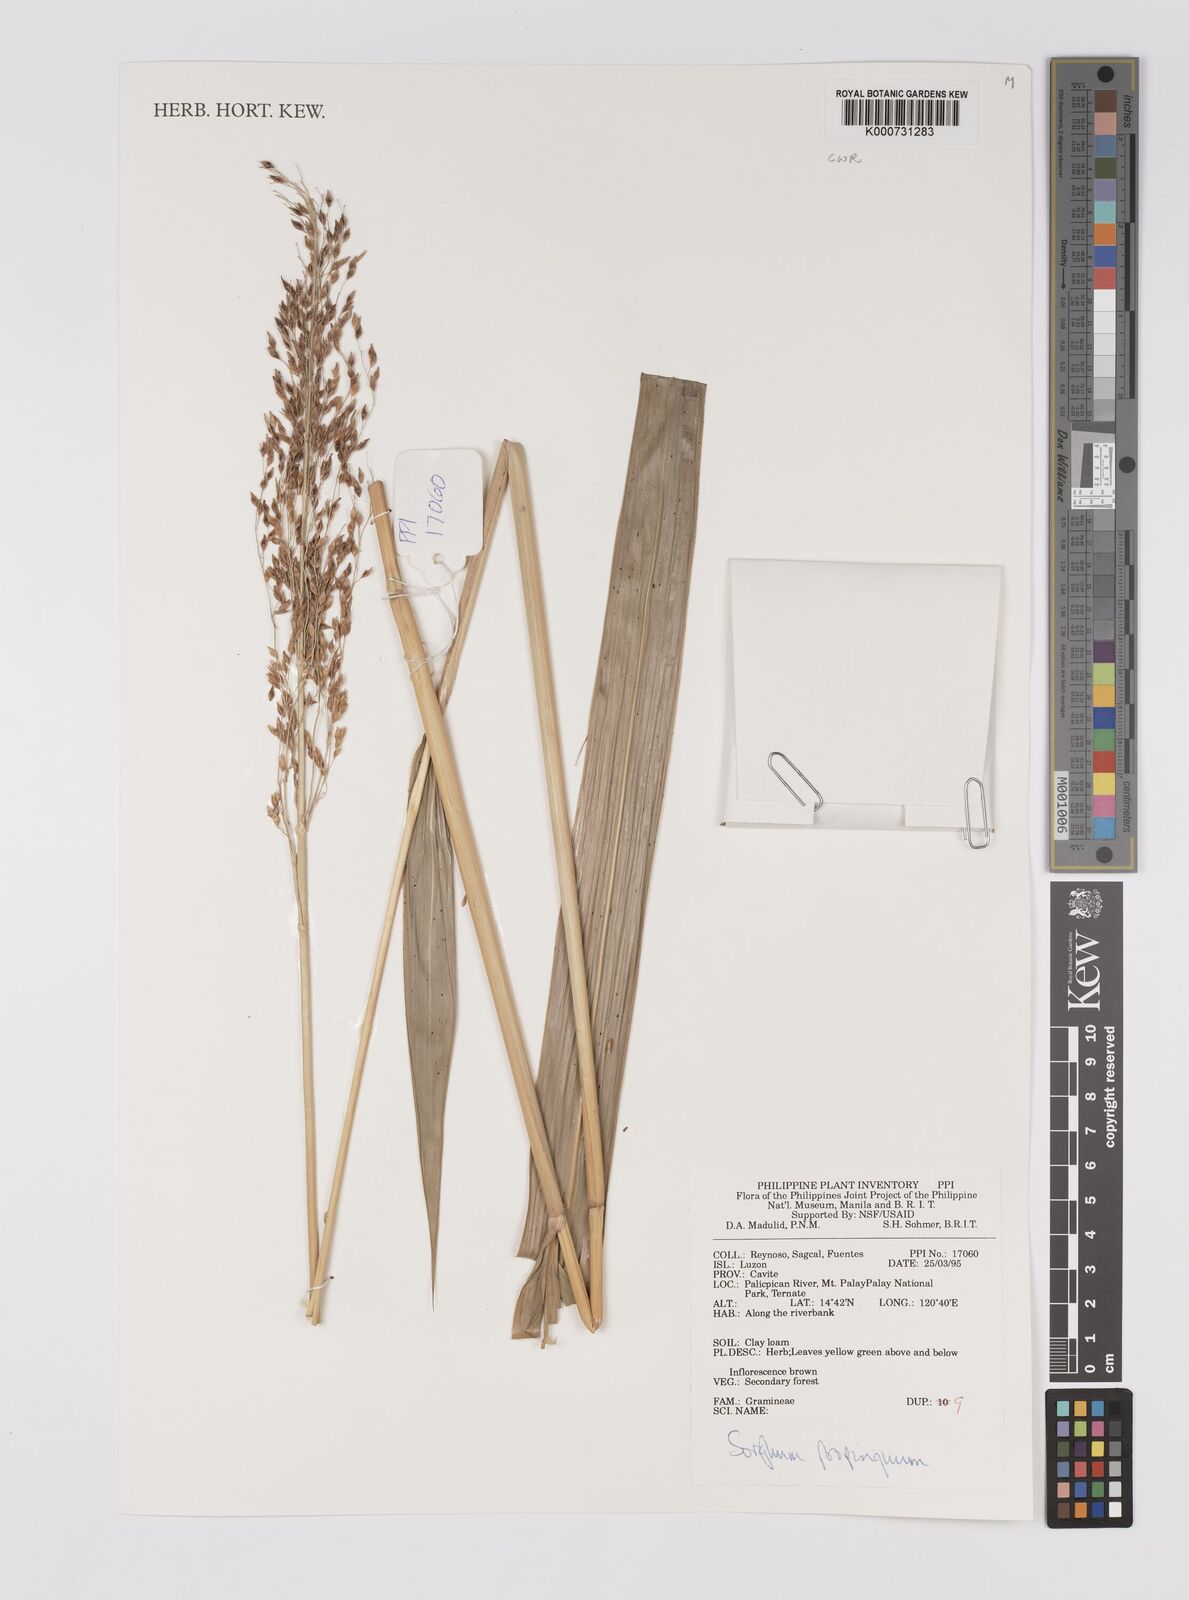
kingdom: Plantae
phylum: Tracheophyta
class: Liliopsida
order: Poales
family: Poaceae
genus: Sorghum
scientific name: Sorghum propinquum
